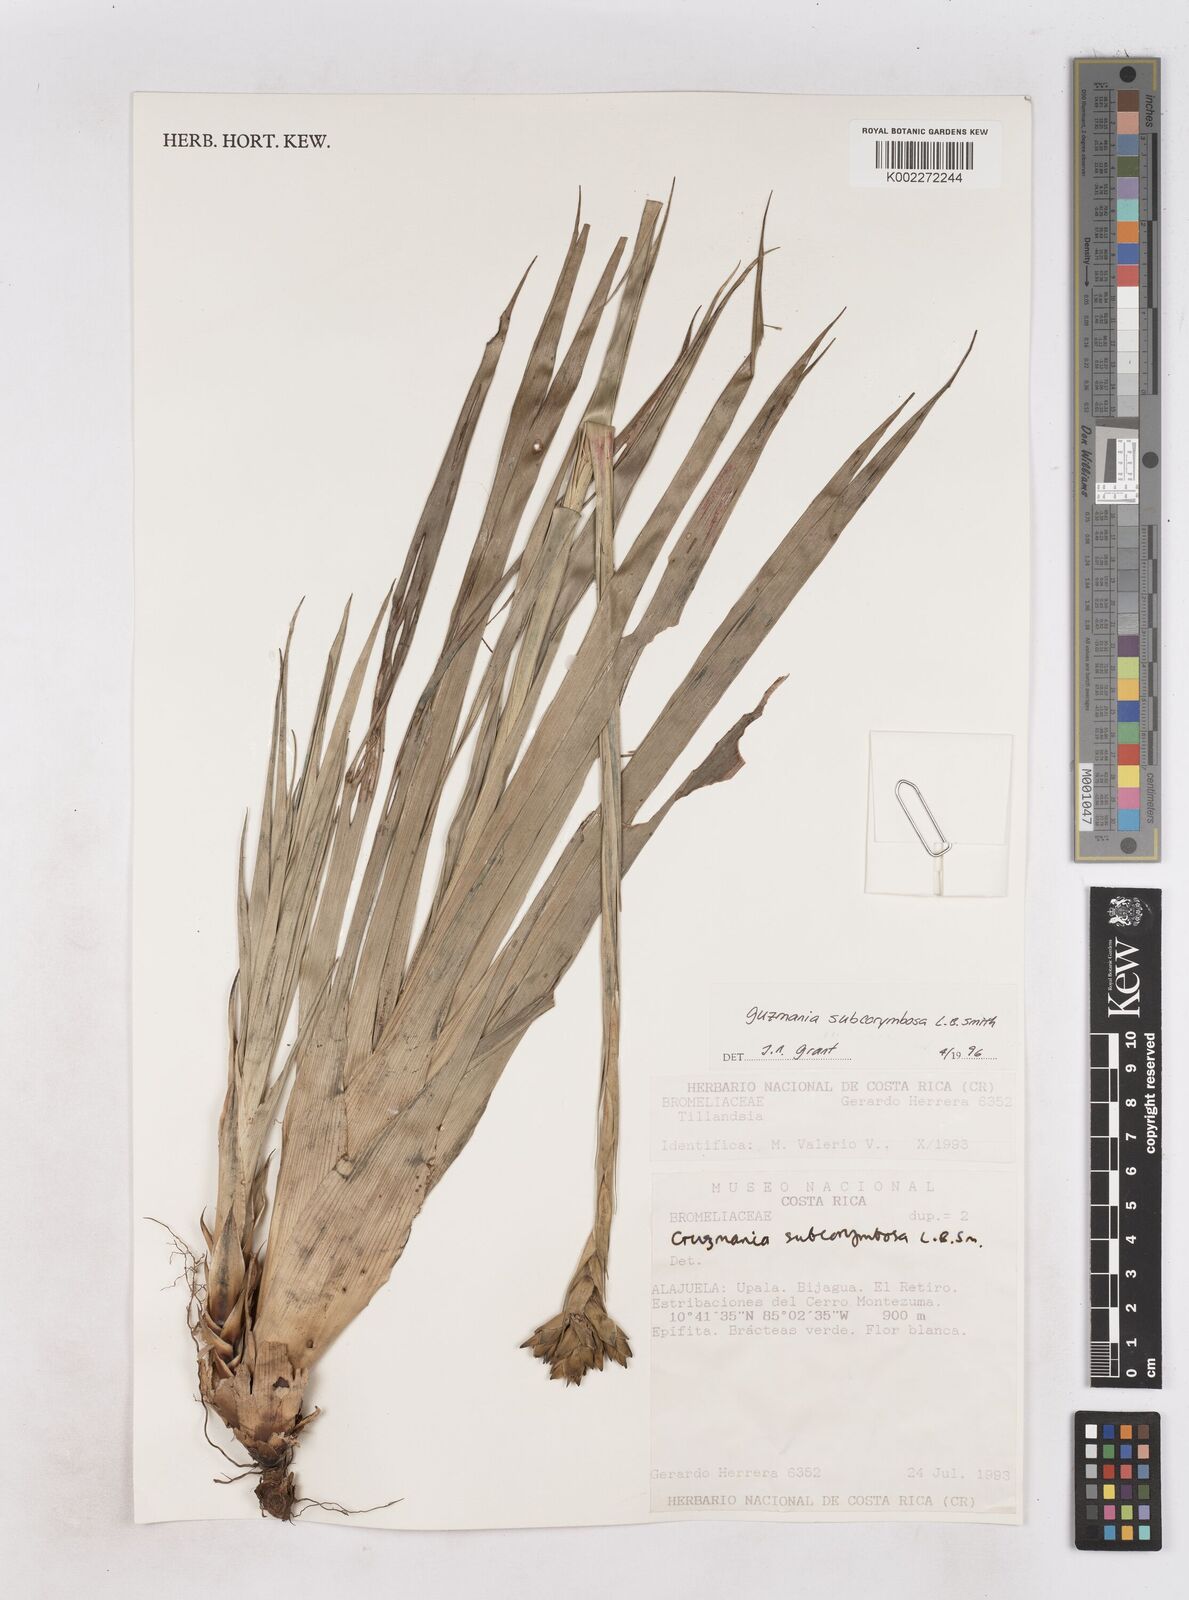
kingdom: Plantae
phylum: Tracheophyta
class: Liliopsida
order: Poales
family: Bromeliaceae
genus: Guzmania
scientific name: Guzmania subcorymbosa
